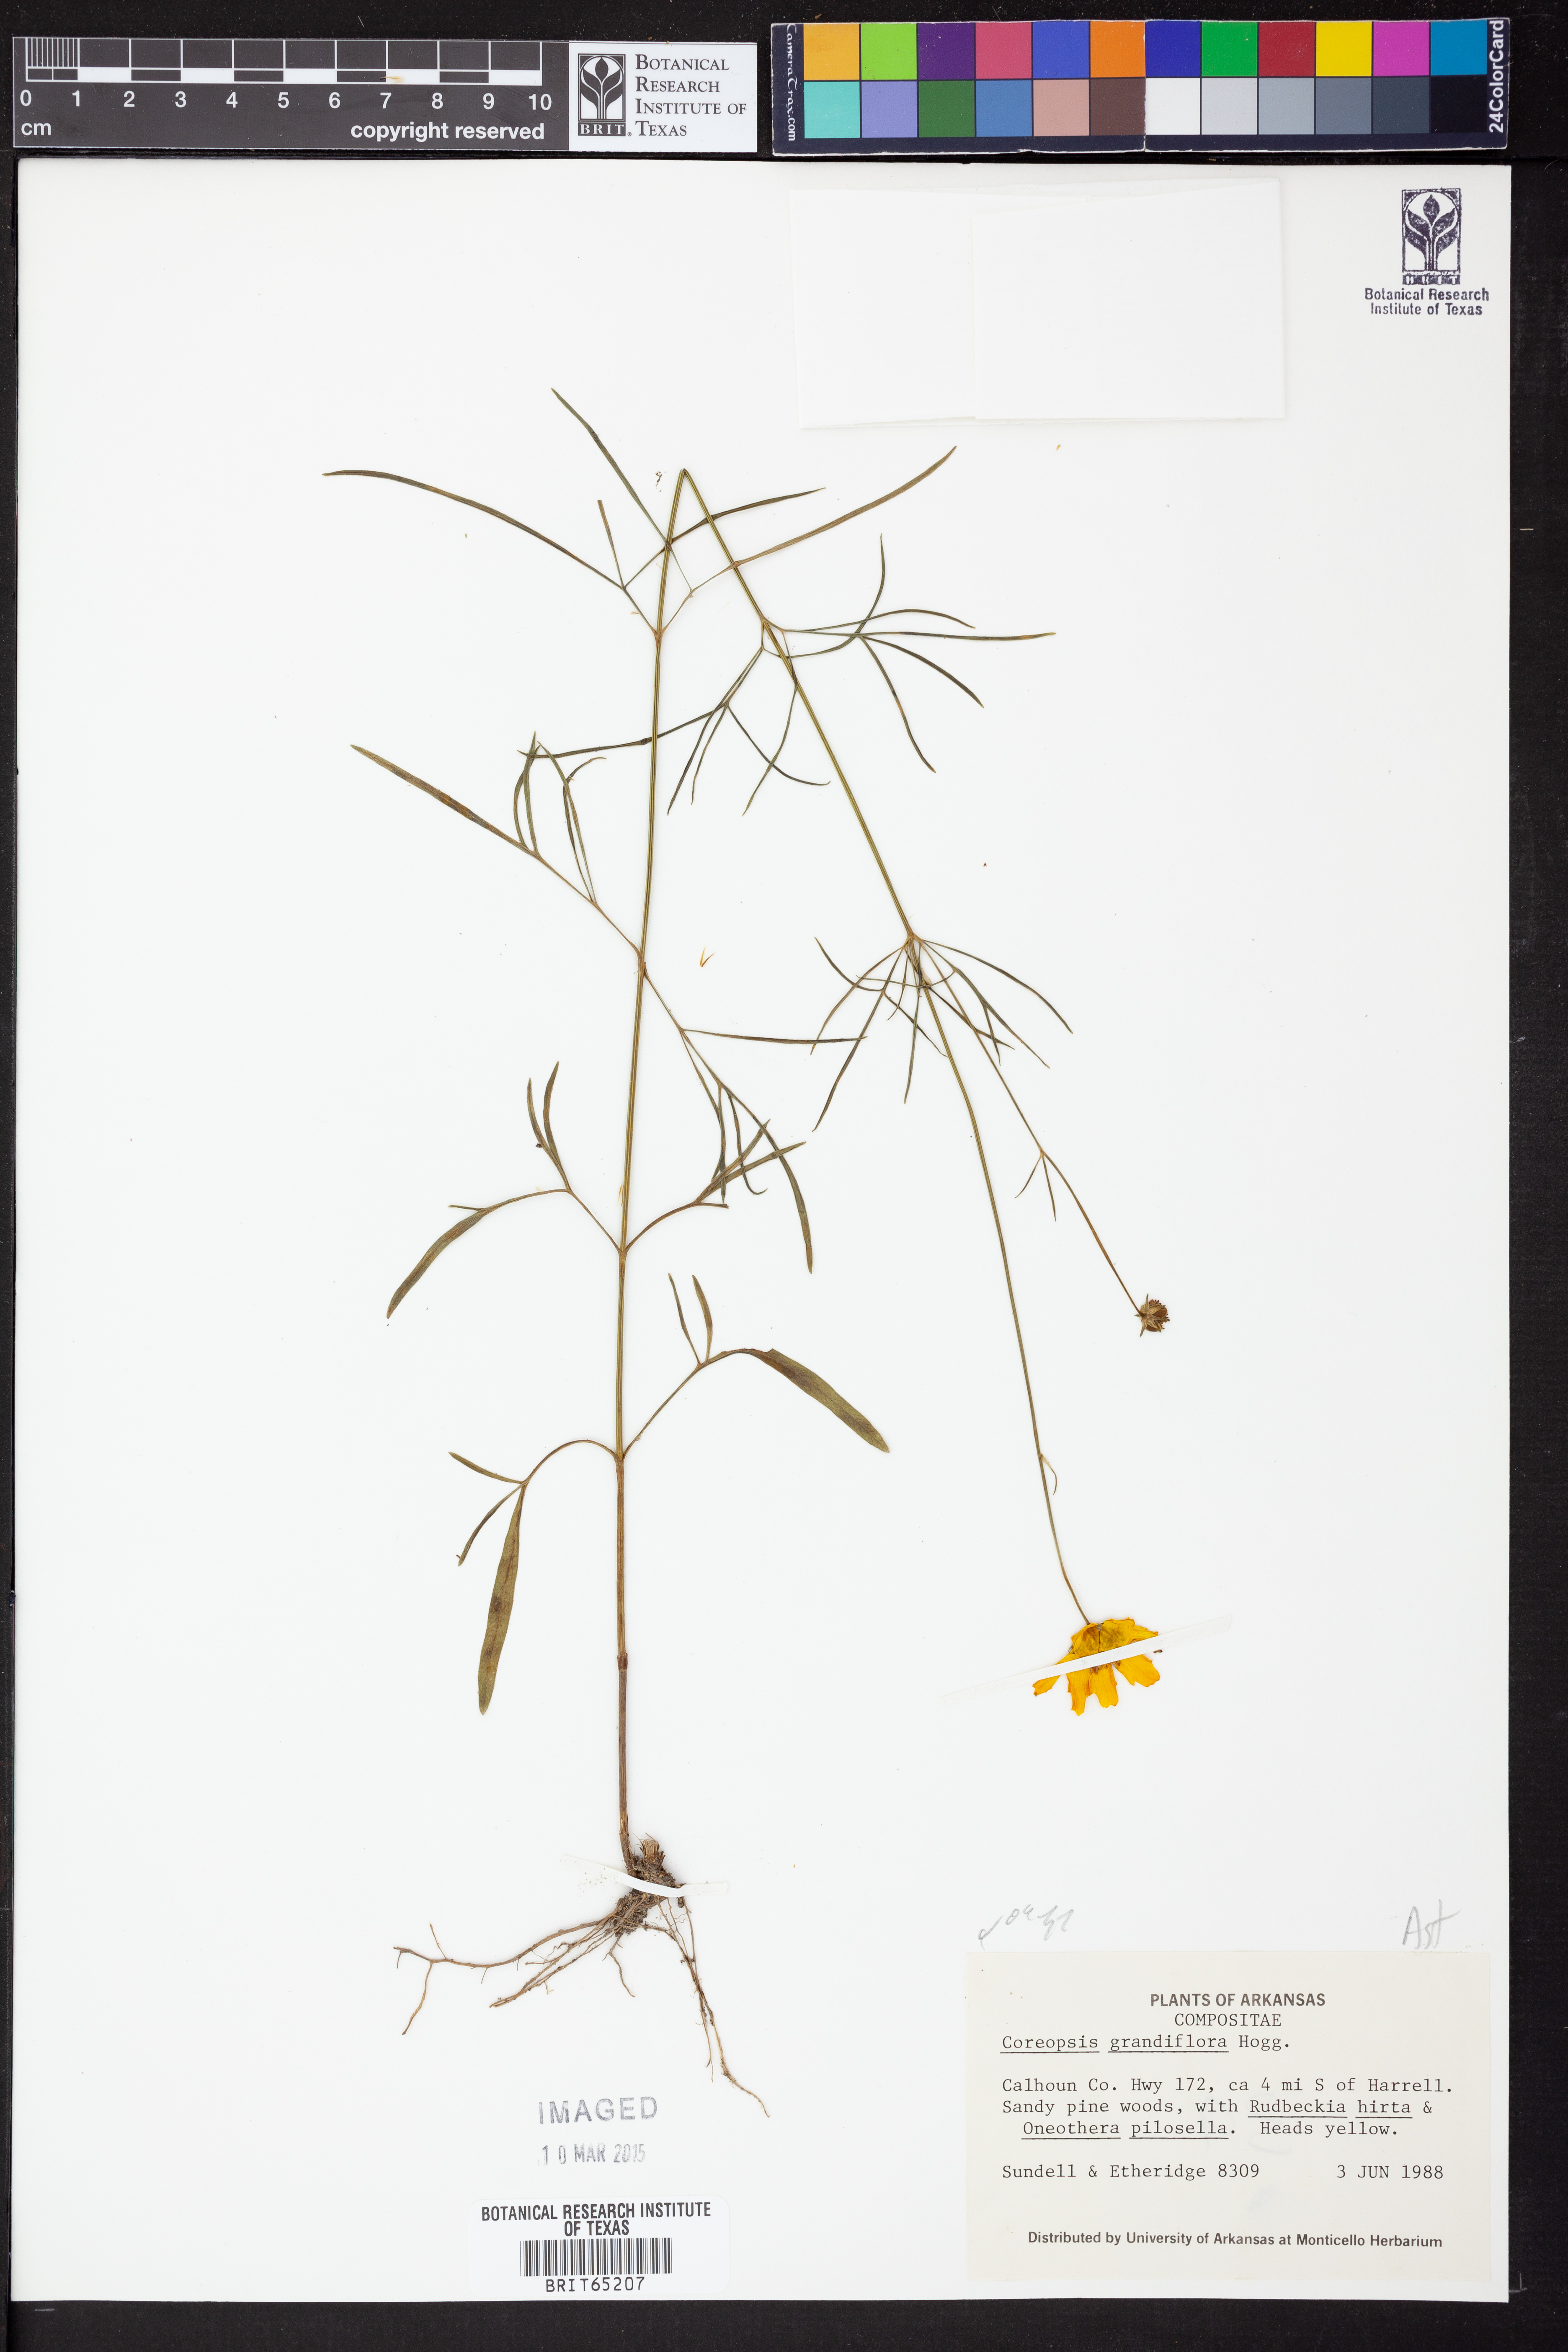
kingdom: Plantae
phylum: Tracheophyta
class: Magnoliopsida
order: Asterales
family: Asteraceae
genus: Coreopsis
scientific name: Coreopsis grandiflora
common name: Large-flowered tickseed
